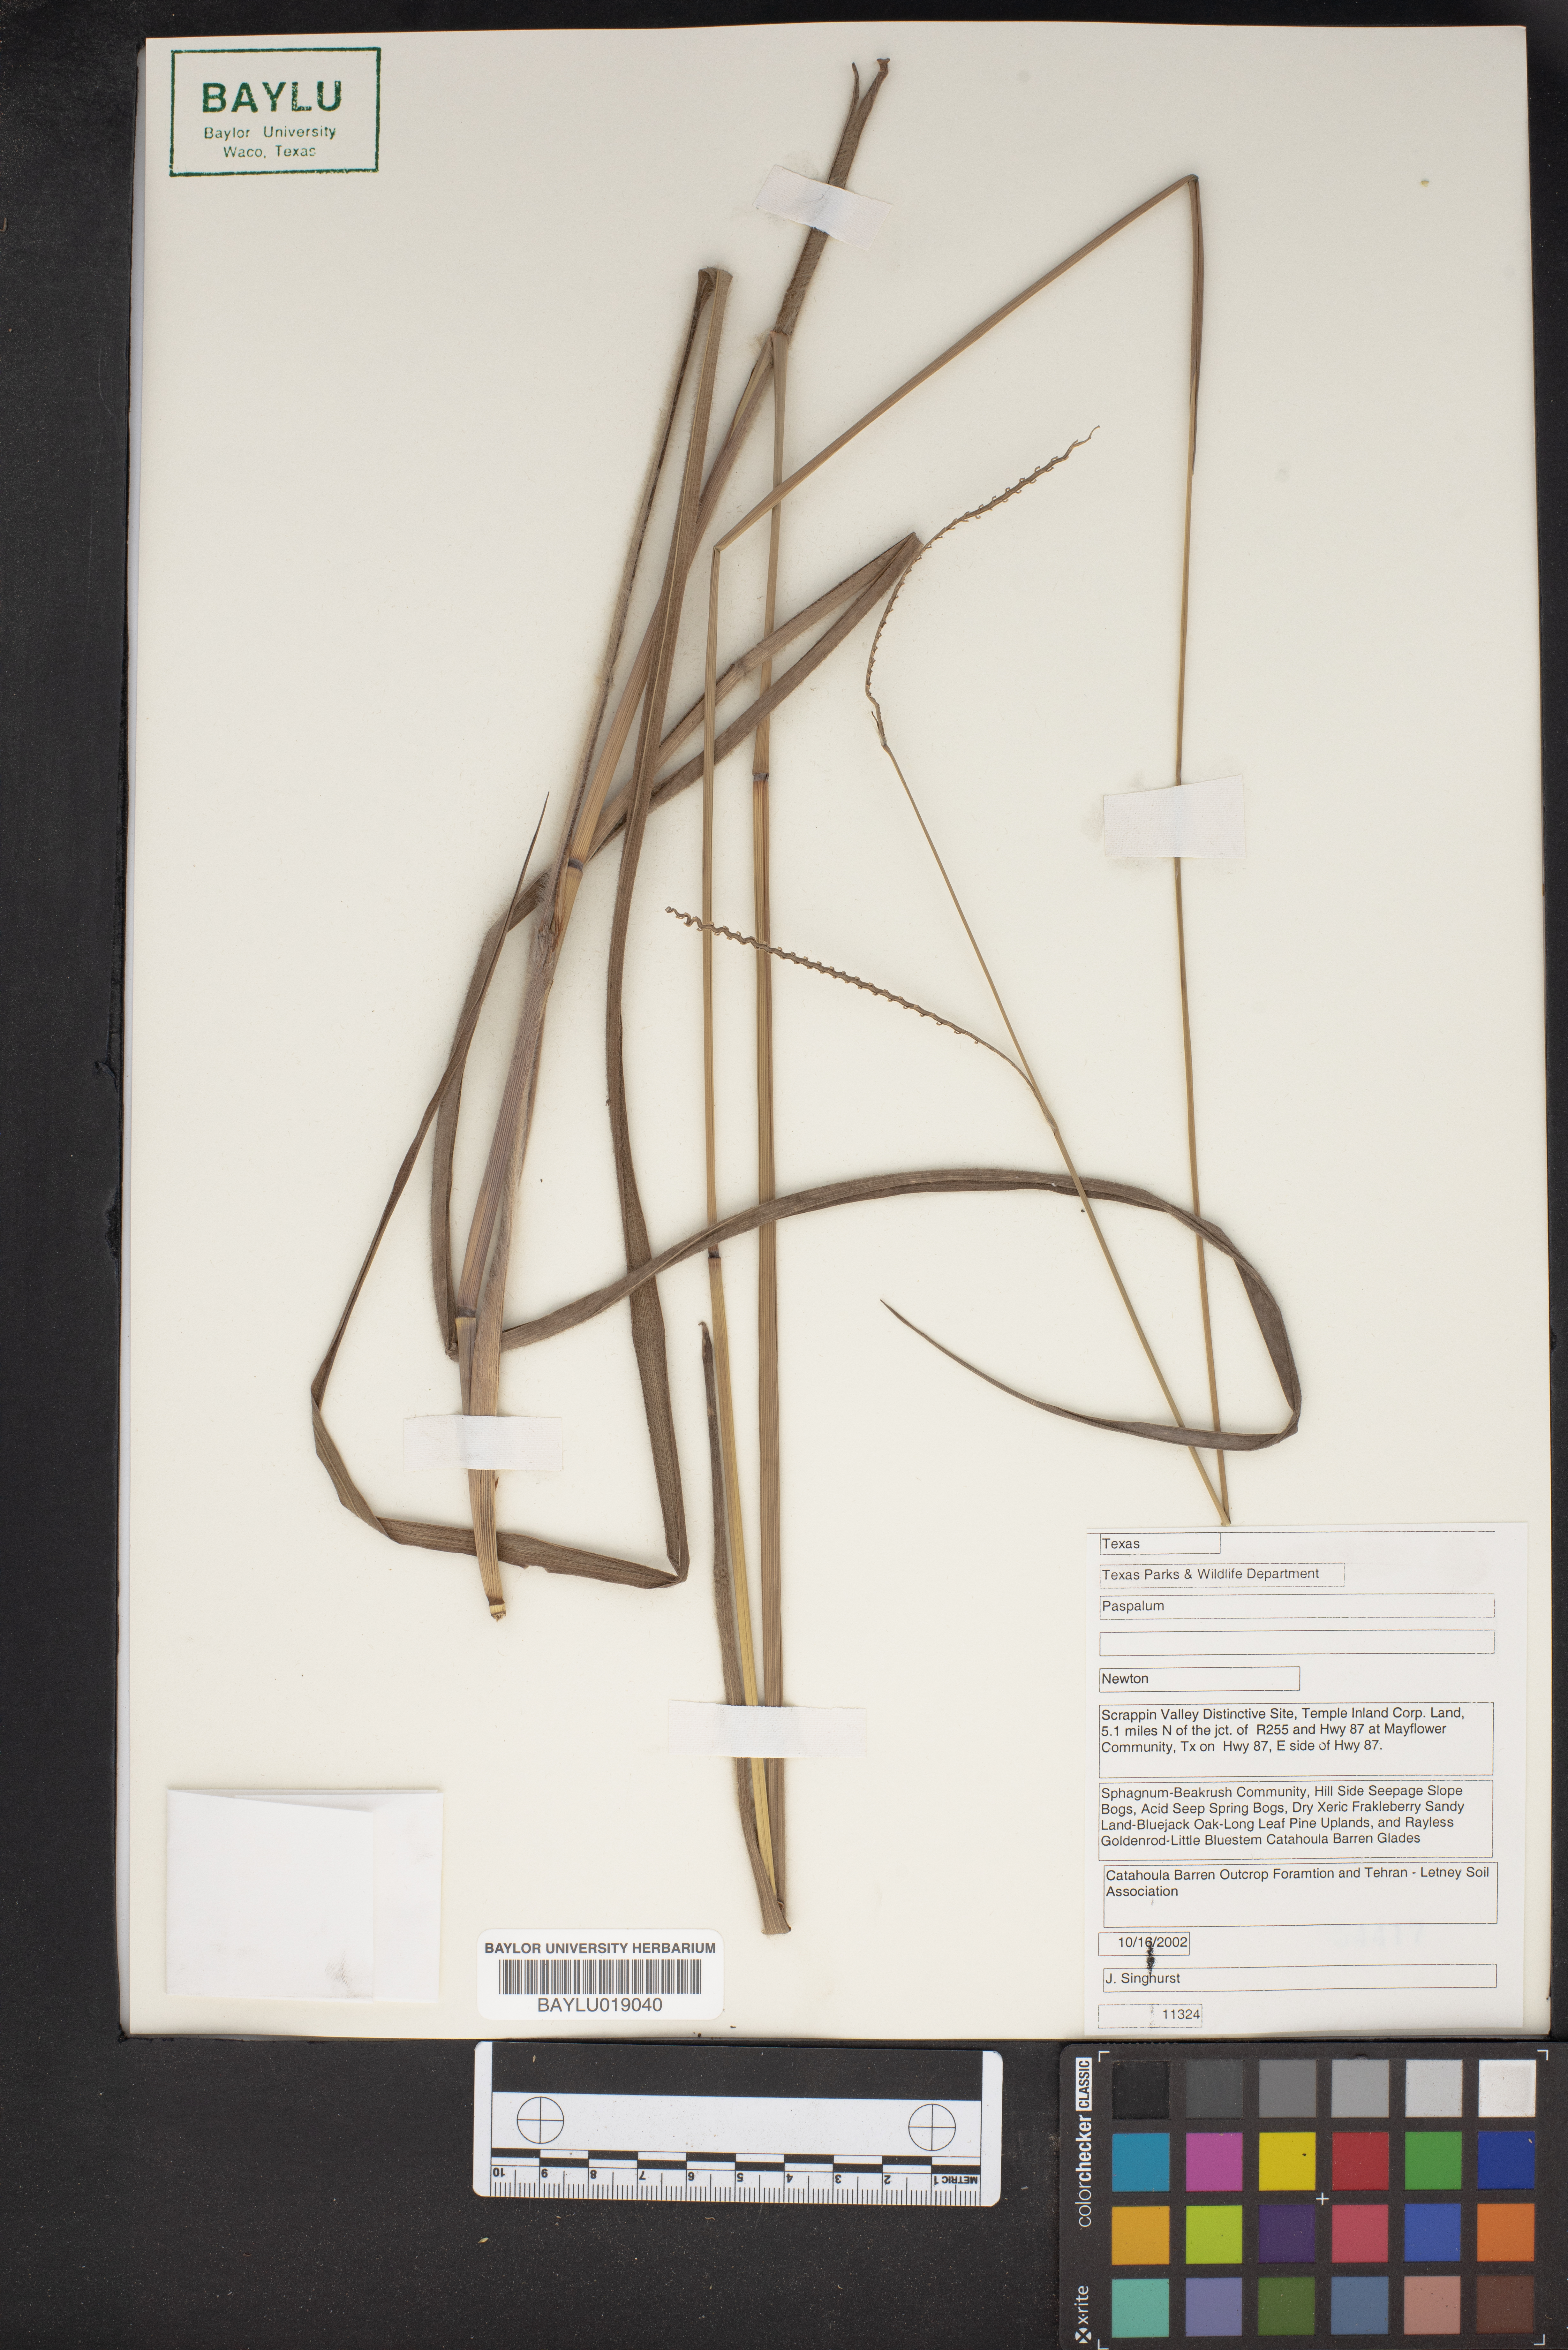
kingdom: Plantae
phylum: Tracheophyta
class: Liliopsida
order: Poales
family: Poaceae
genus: Paspalum
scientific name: Paspalum
